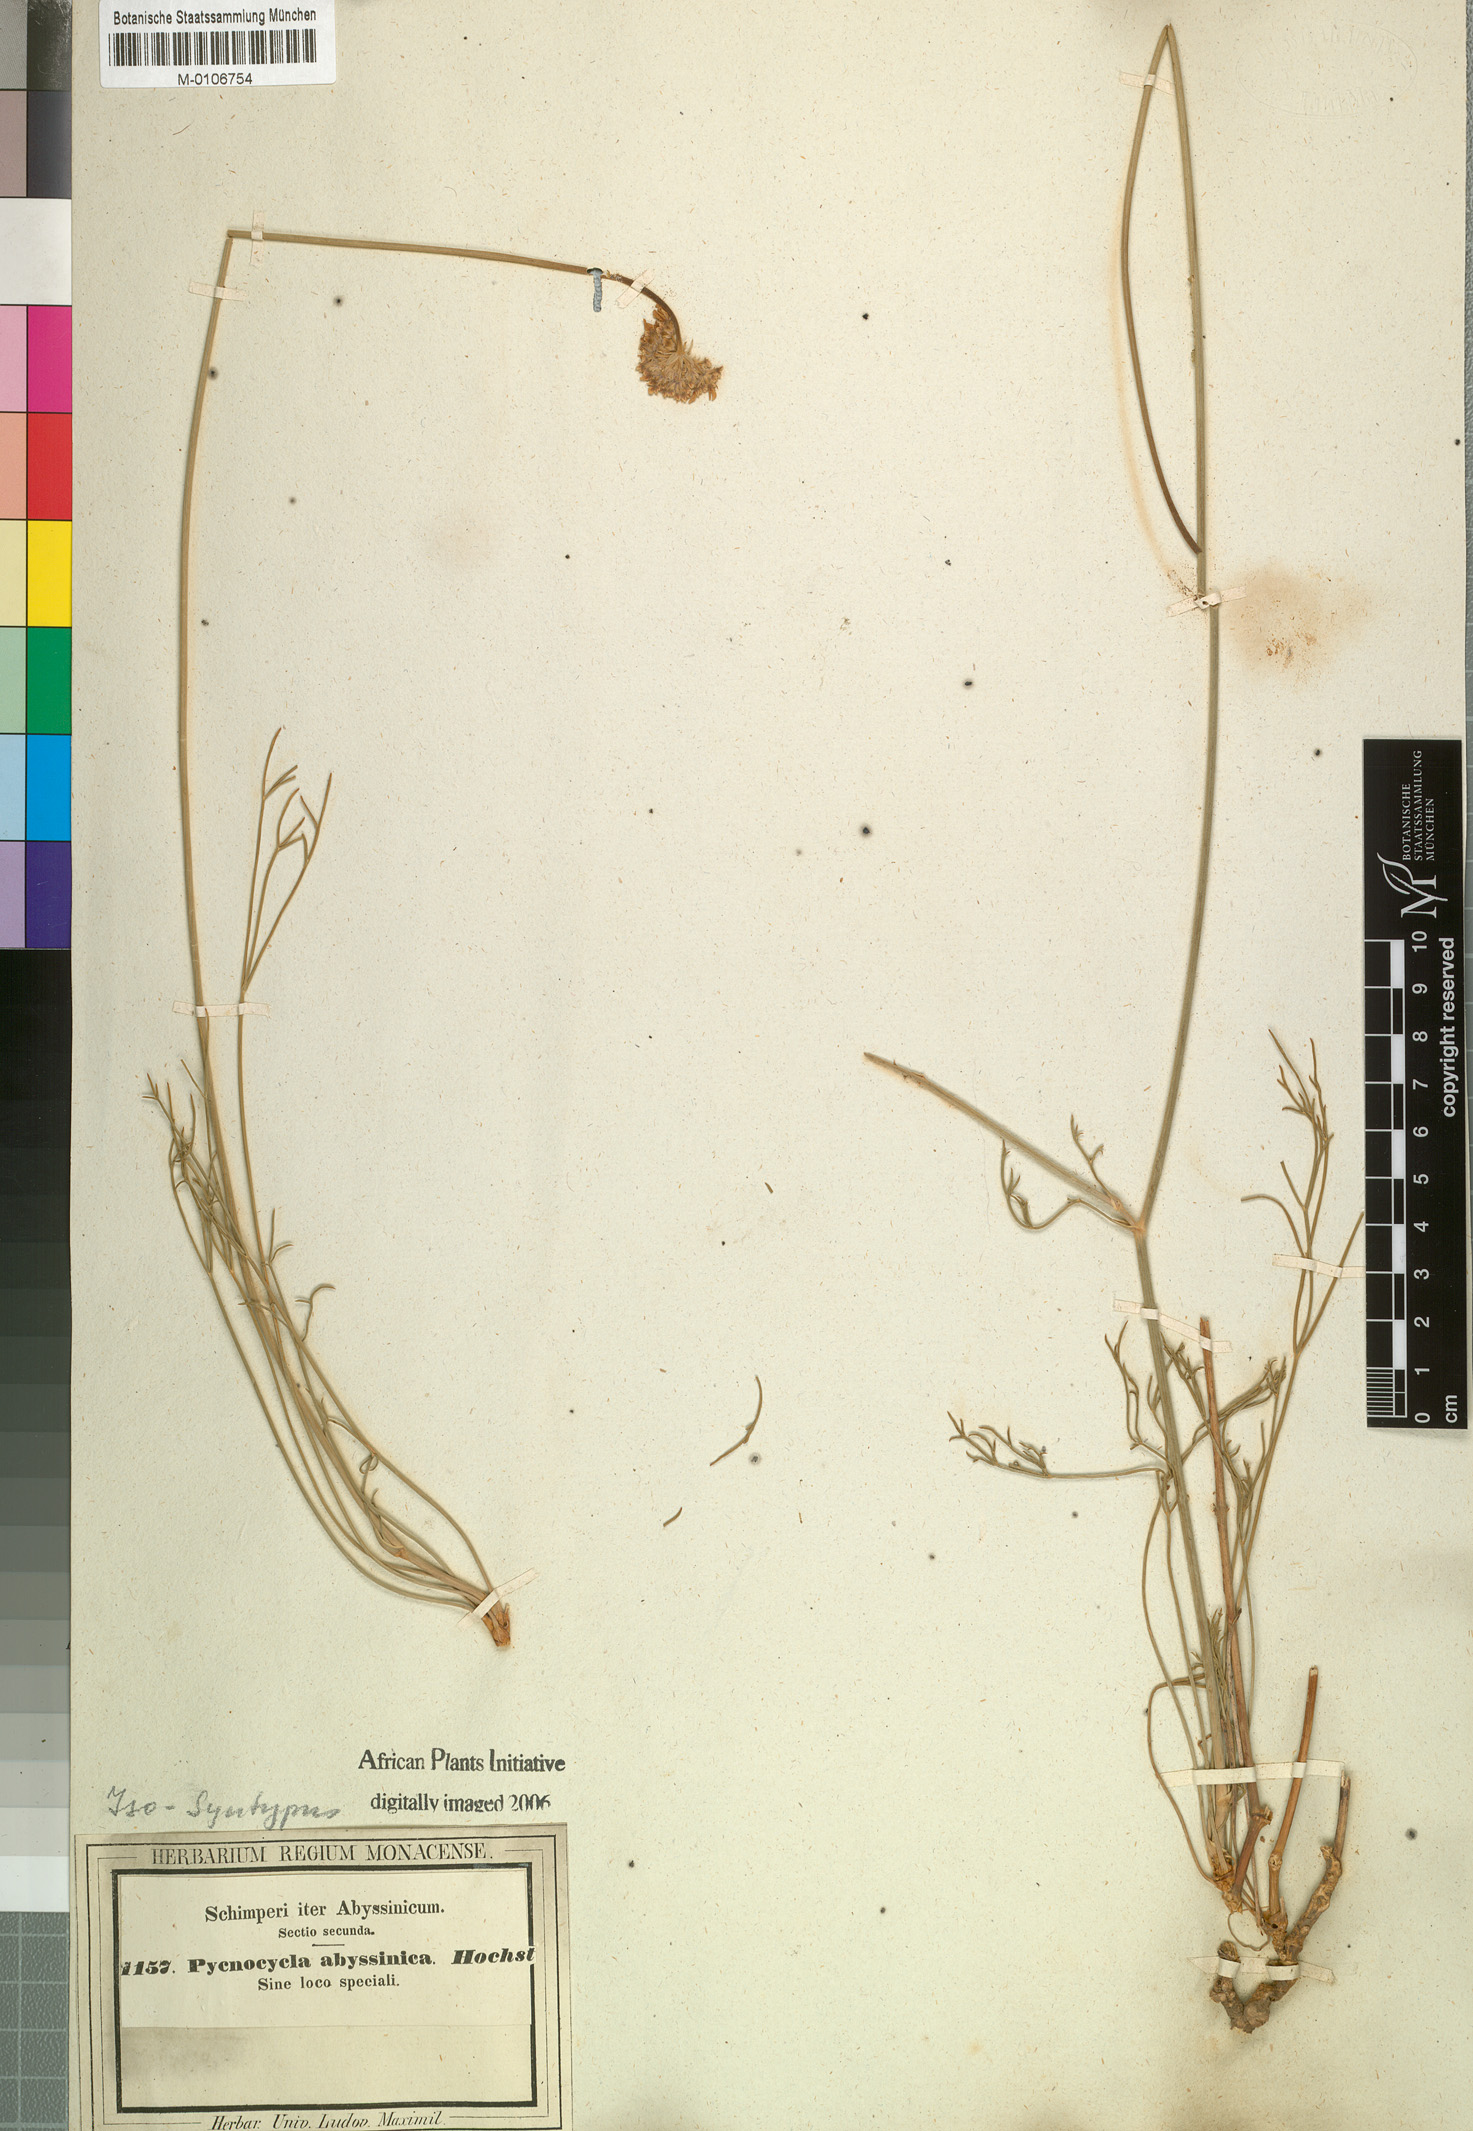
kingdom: Plantae
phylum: Tracheophyta
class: Magnoliopsida
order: Apiales
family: Apiaceae
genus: Pycnocycla
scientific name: Pycnocycla glauca
